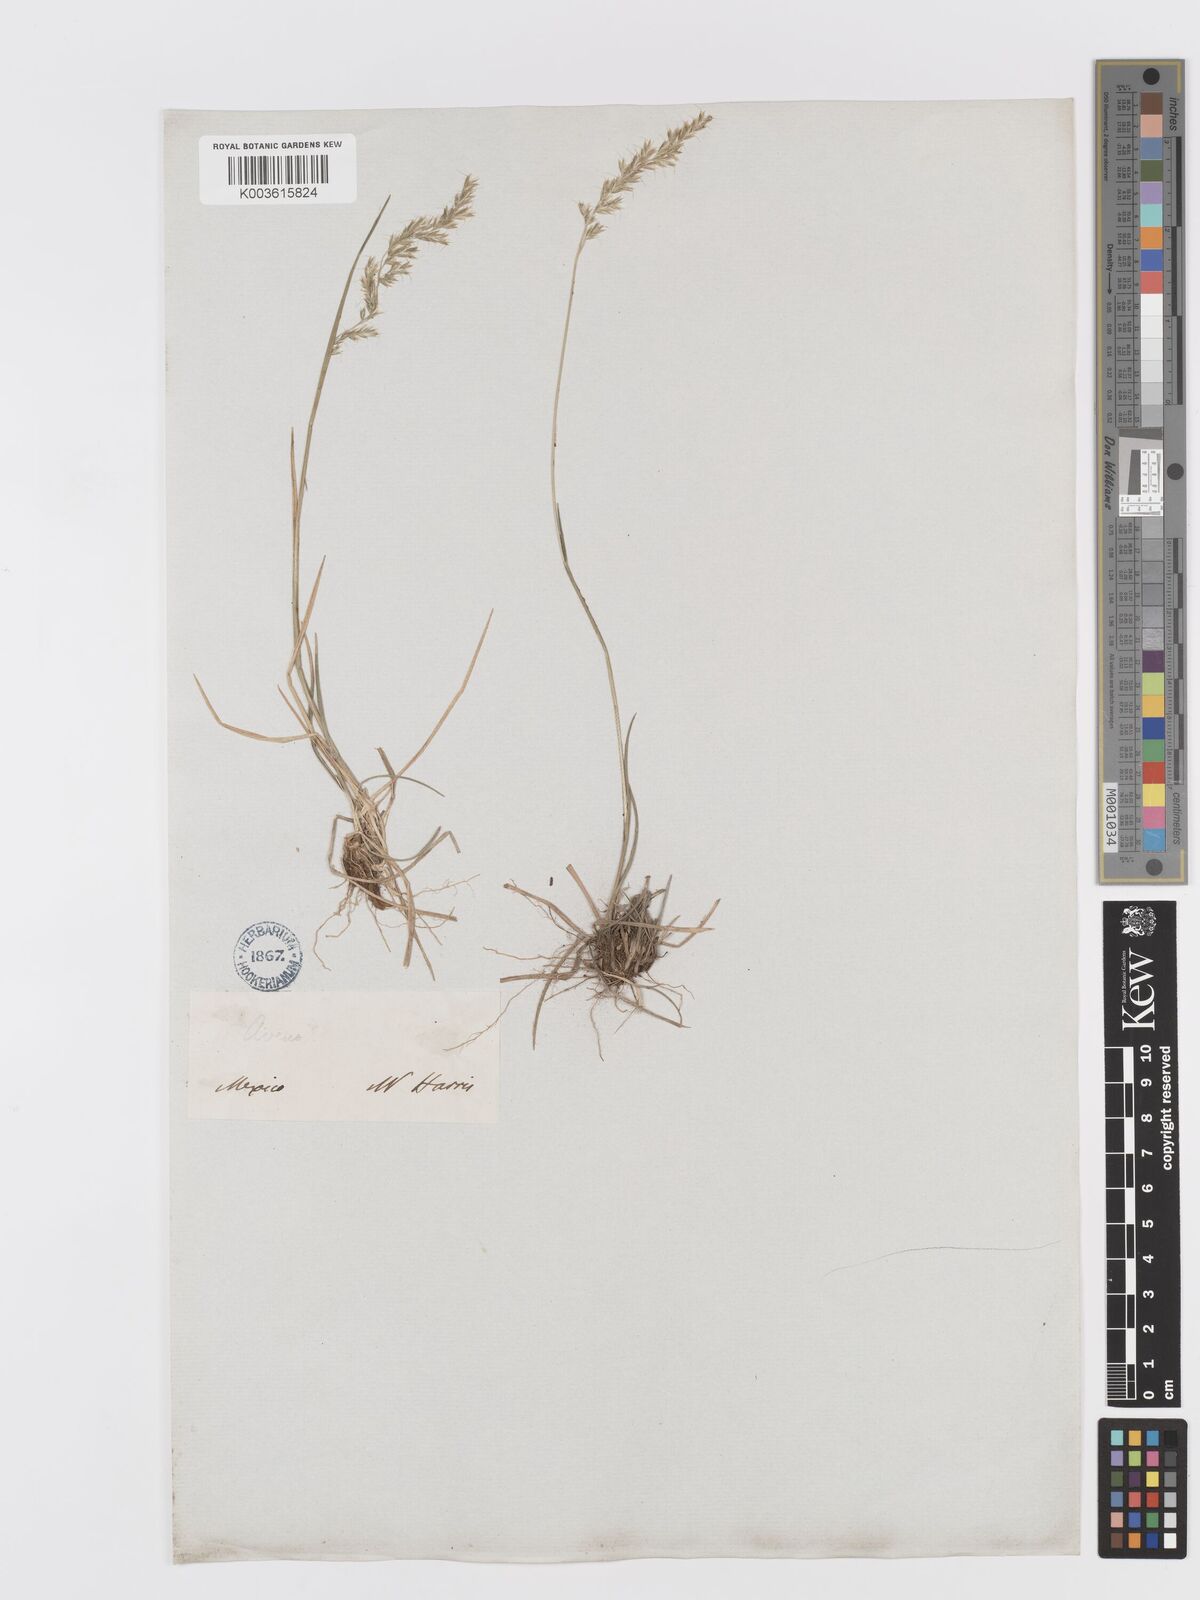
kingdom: Plantae
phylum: Tracheophyta
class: Liliopsida
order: Poales
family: Poaceae
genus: Trisetum
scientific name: Trisetum
